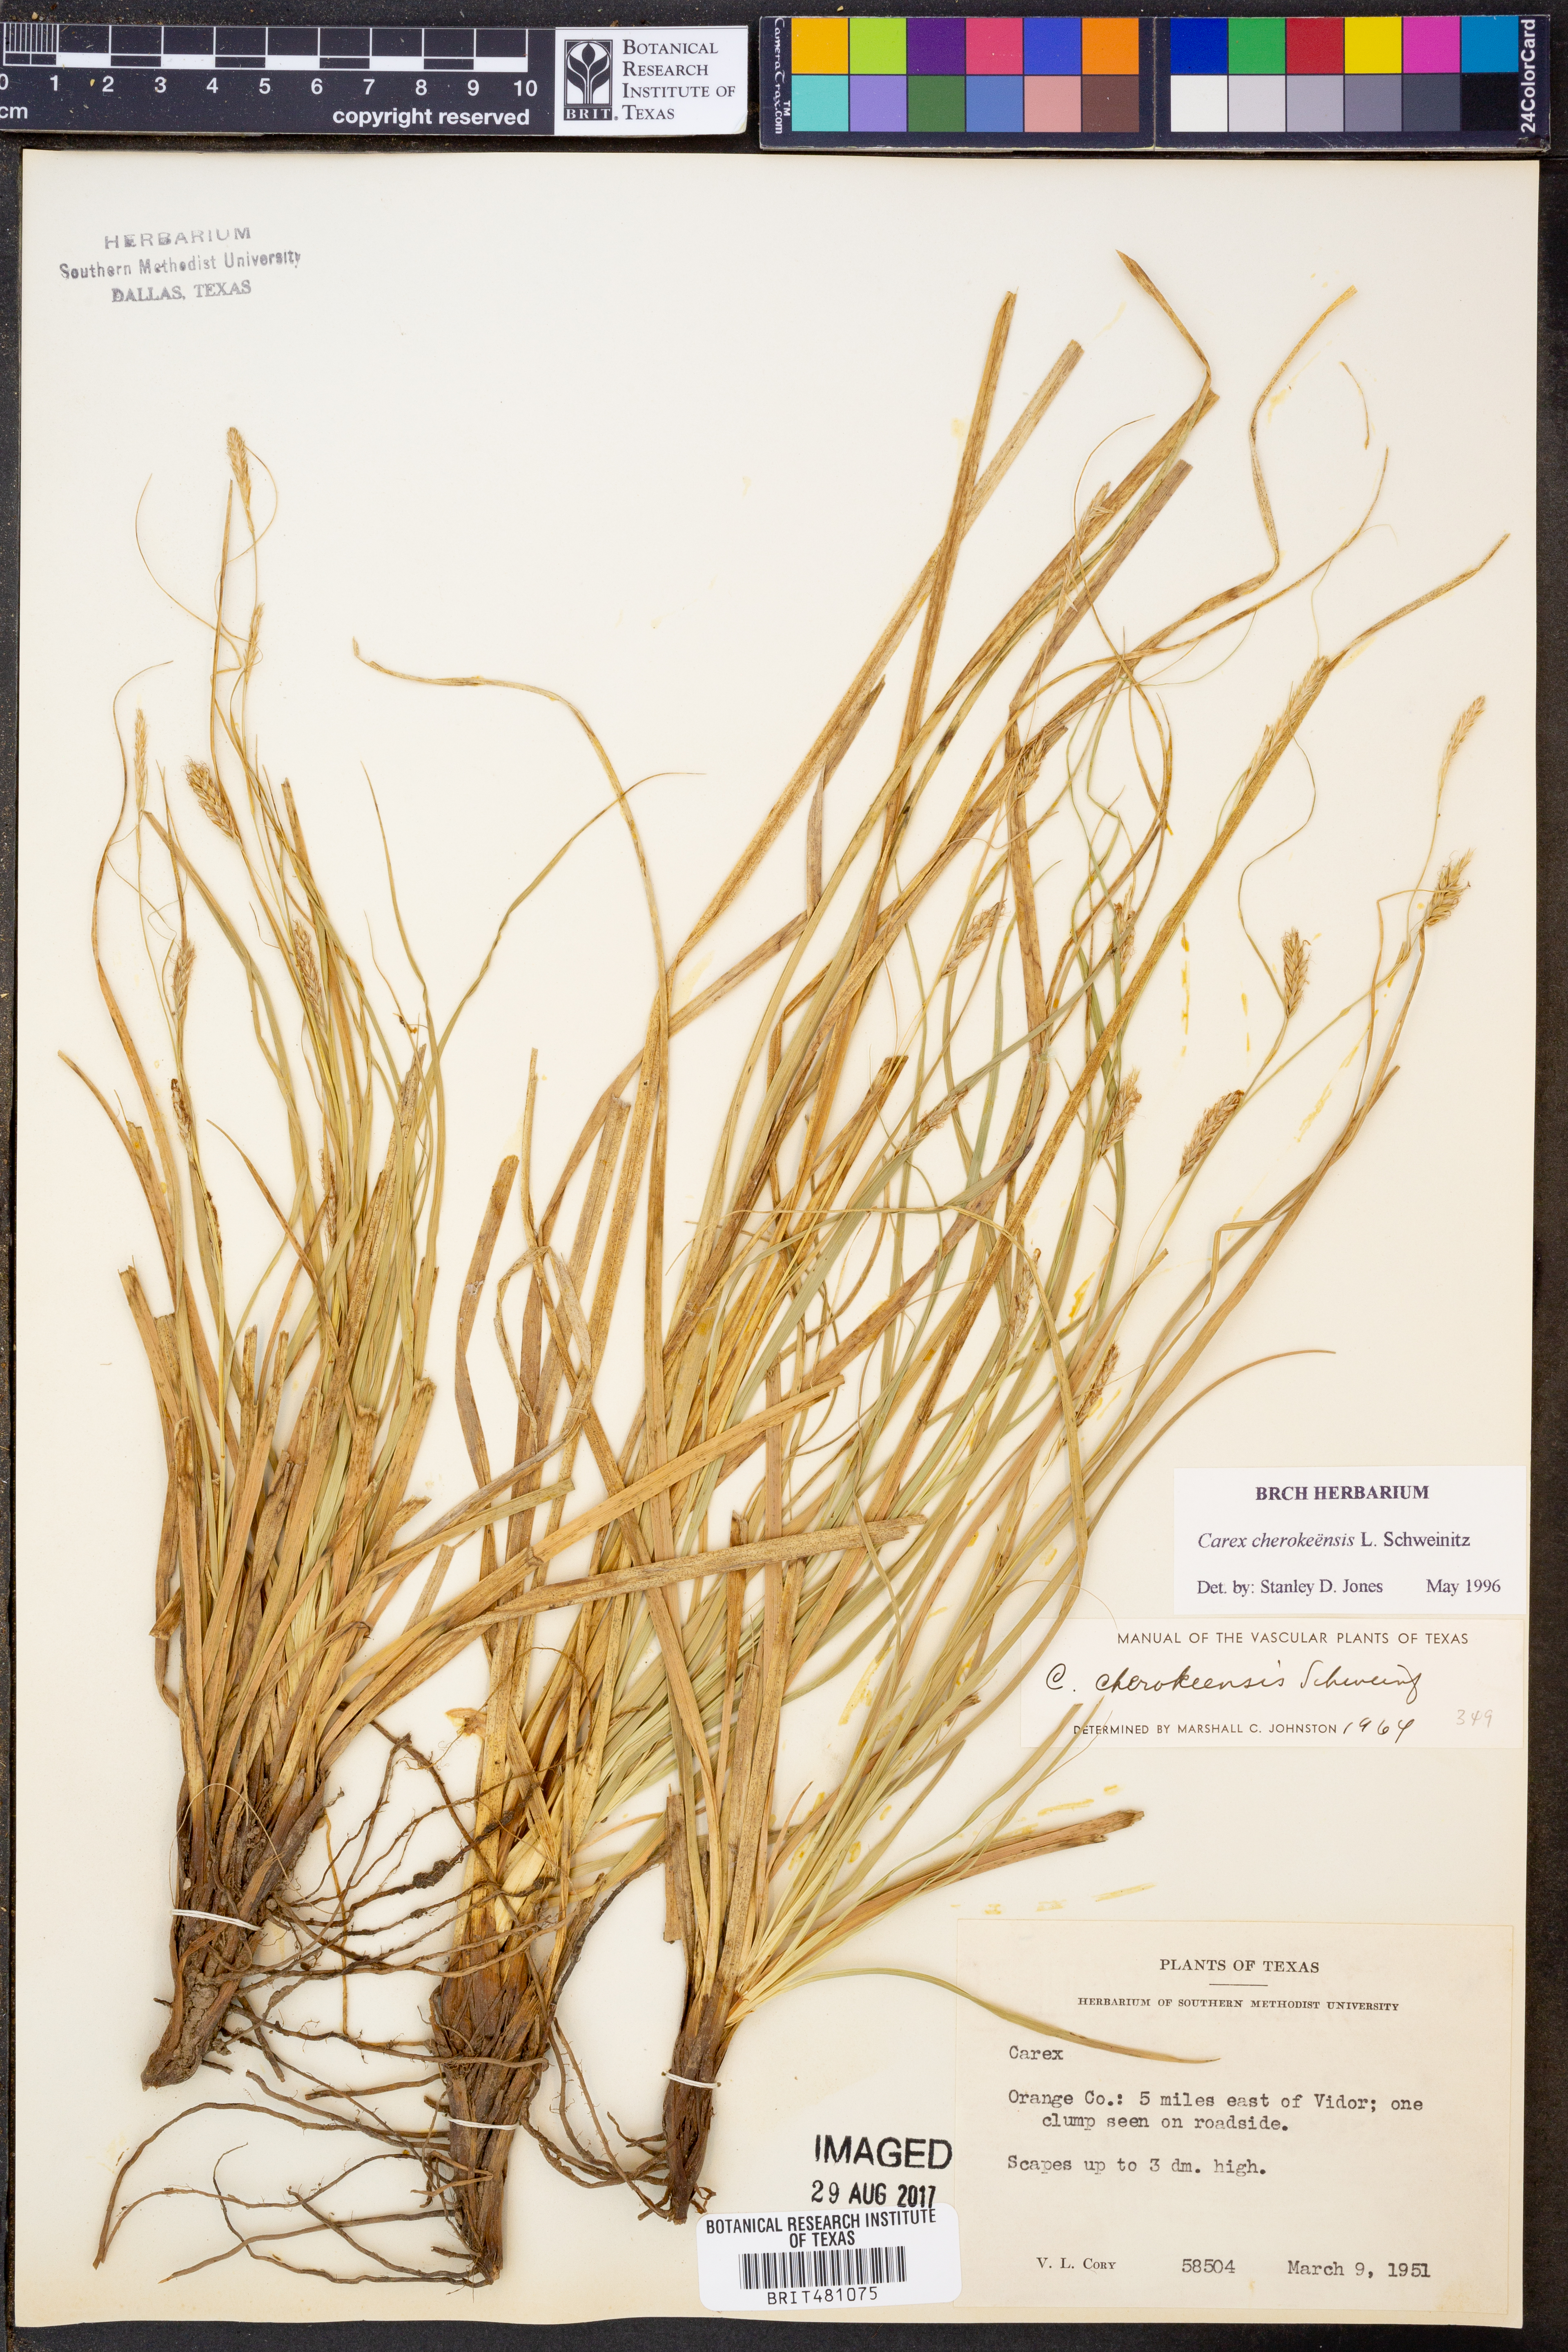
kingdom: Plantae
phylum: Tracheophyta
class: Liliopsida
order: Poales
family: Cyperaceae
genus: Carex
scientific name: Carex cherokeensis
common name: Cherokee sedge
